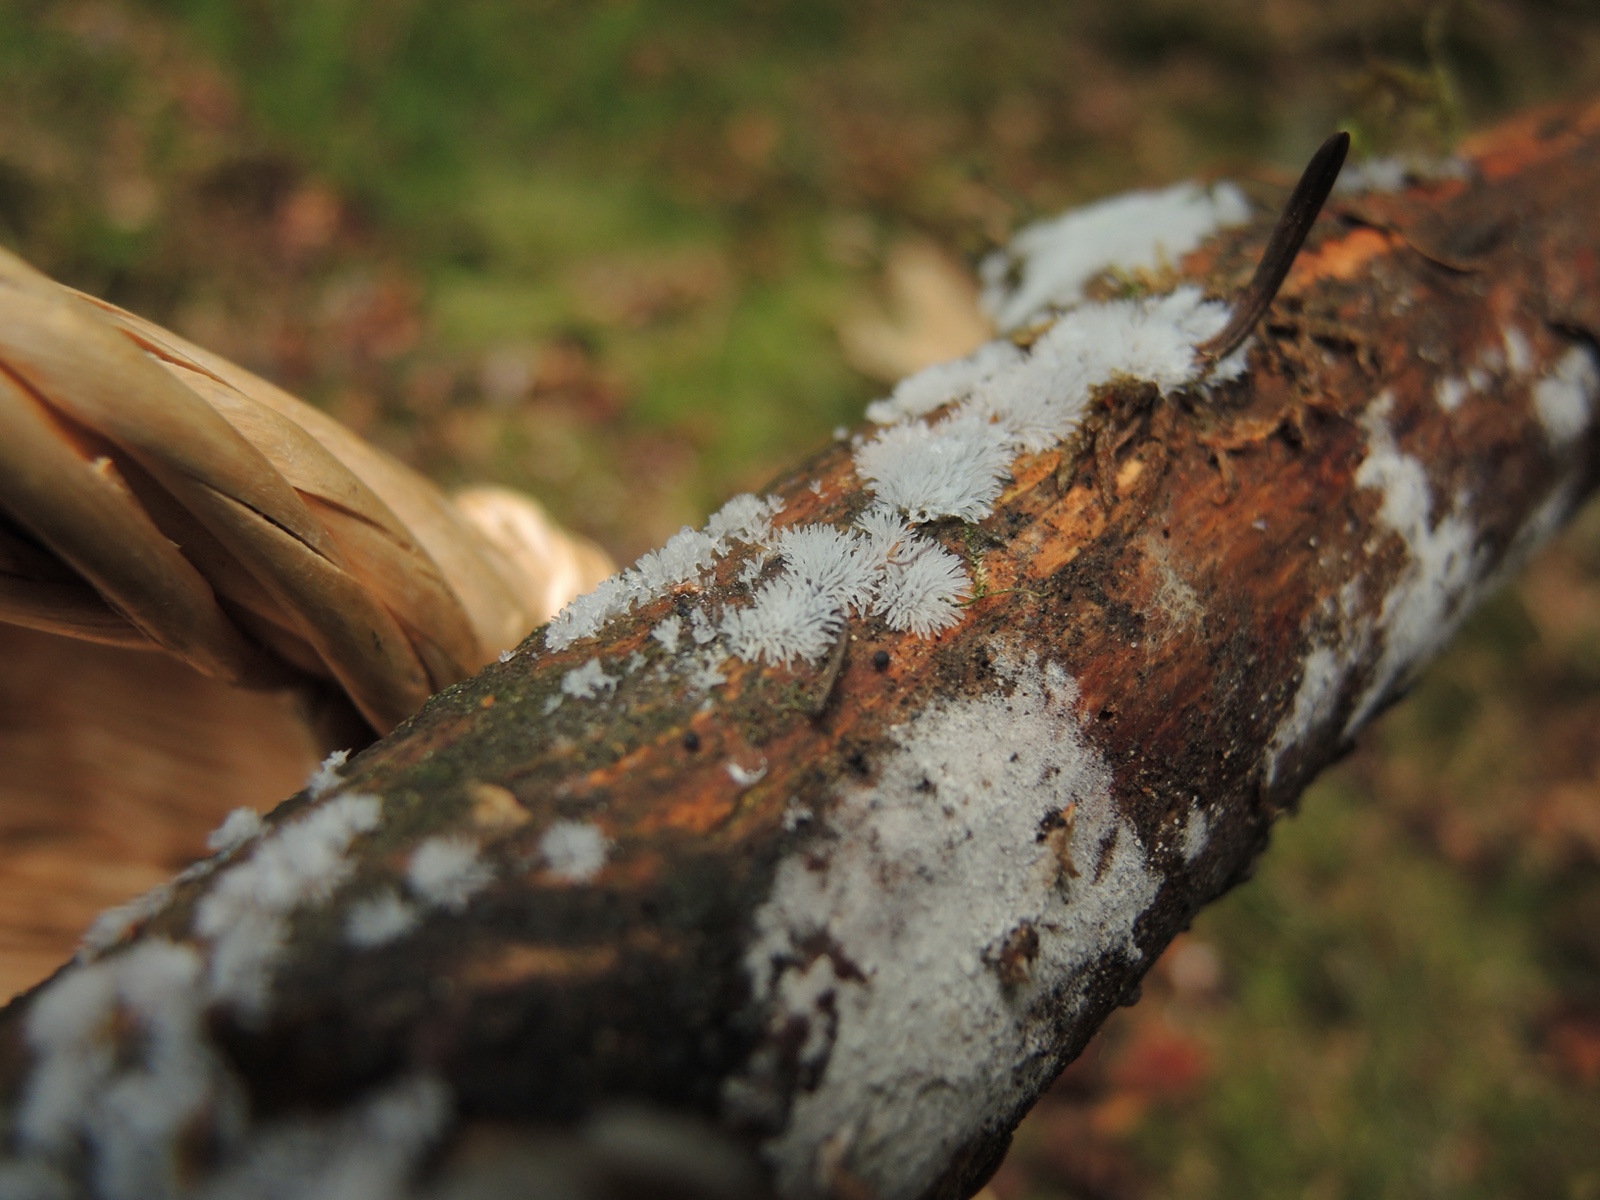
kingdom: Protozoa
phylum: Mycetozoa
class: Protosteliomycetes
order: Ceratiomyxales
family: Ceratiomyxaceae
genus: Ceratiomyxa
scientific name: Ceratiomyxa fruticulosa
